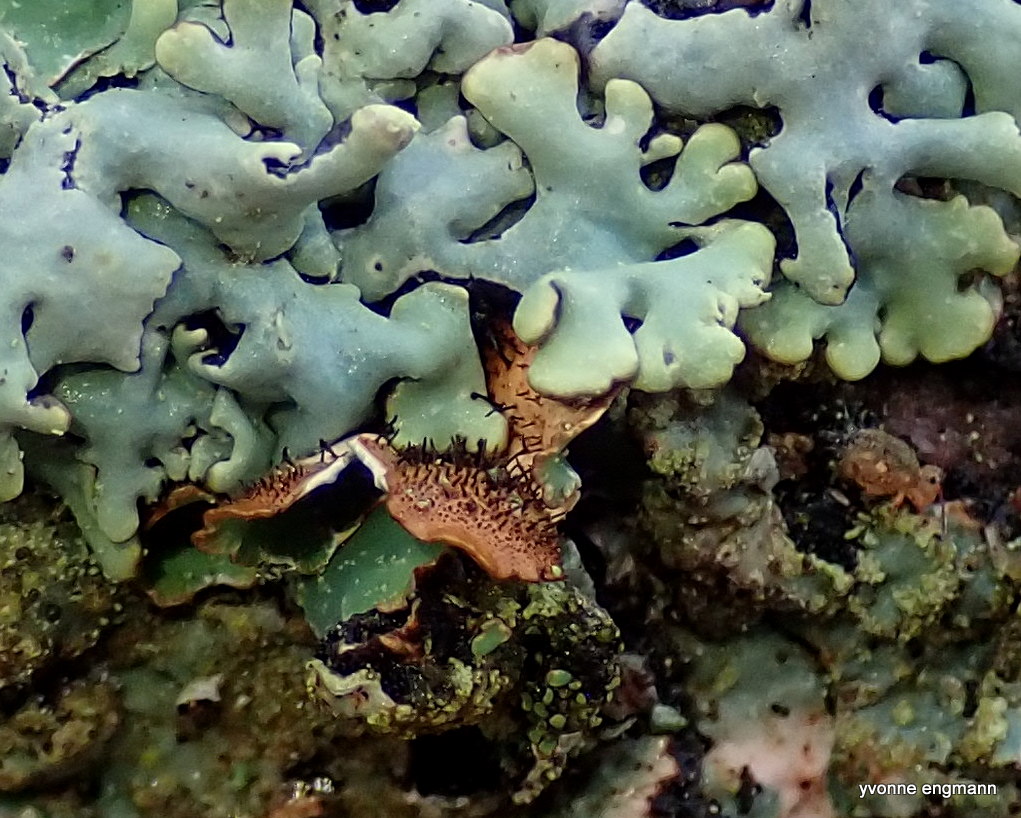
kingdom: Fungi
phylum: Ascomycota
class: Lecanoromycetes
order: Lecanorales
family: Parmeliaceae
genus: Hypogymnia
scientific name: Hypogymnia tubulosa
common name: finger-kvistlav
